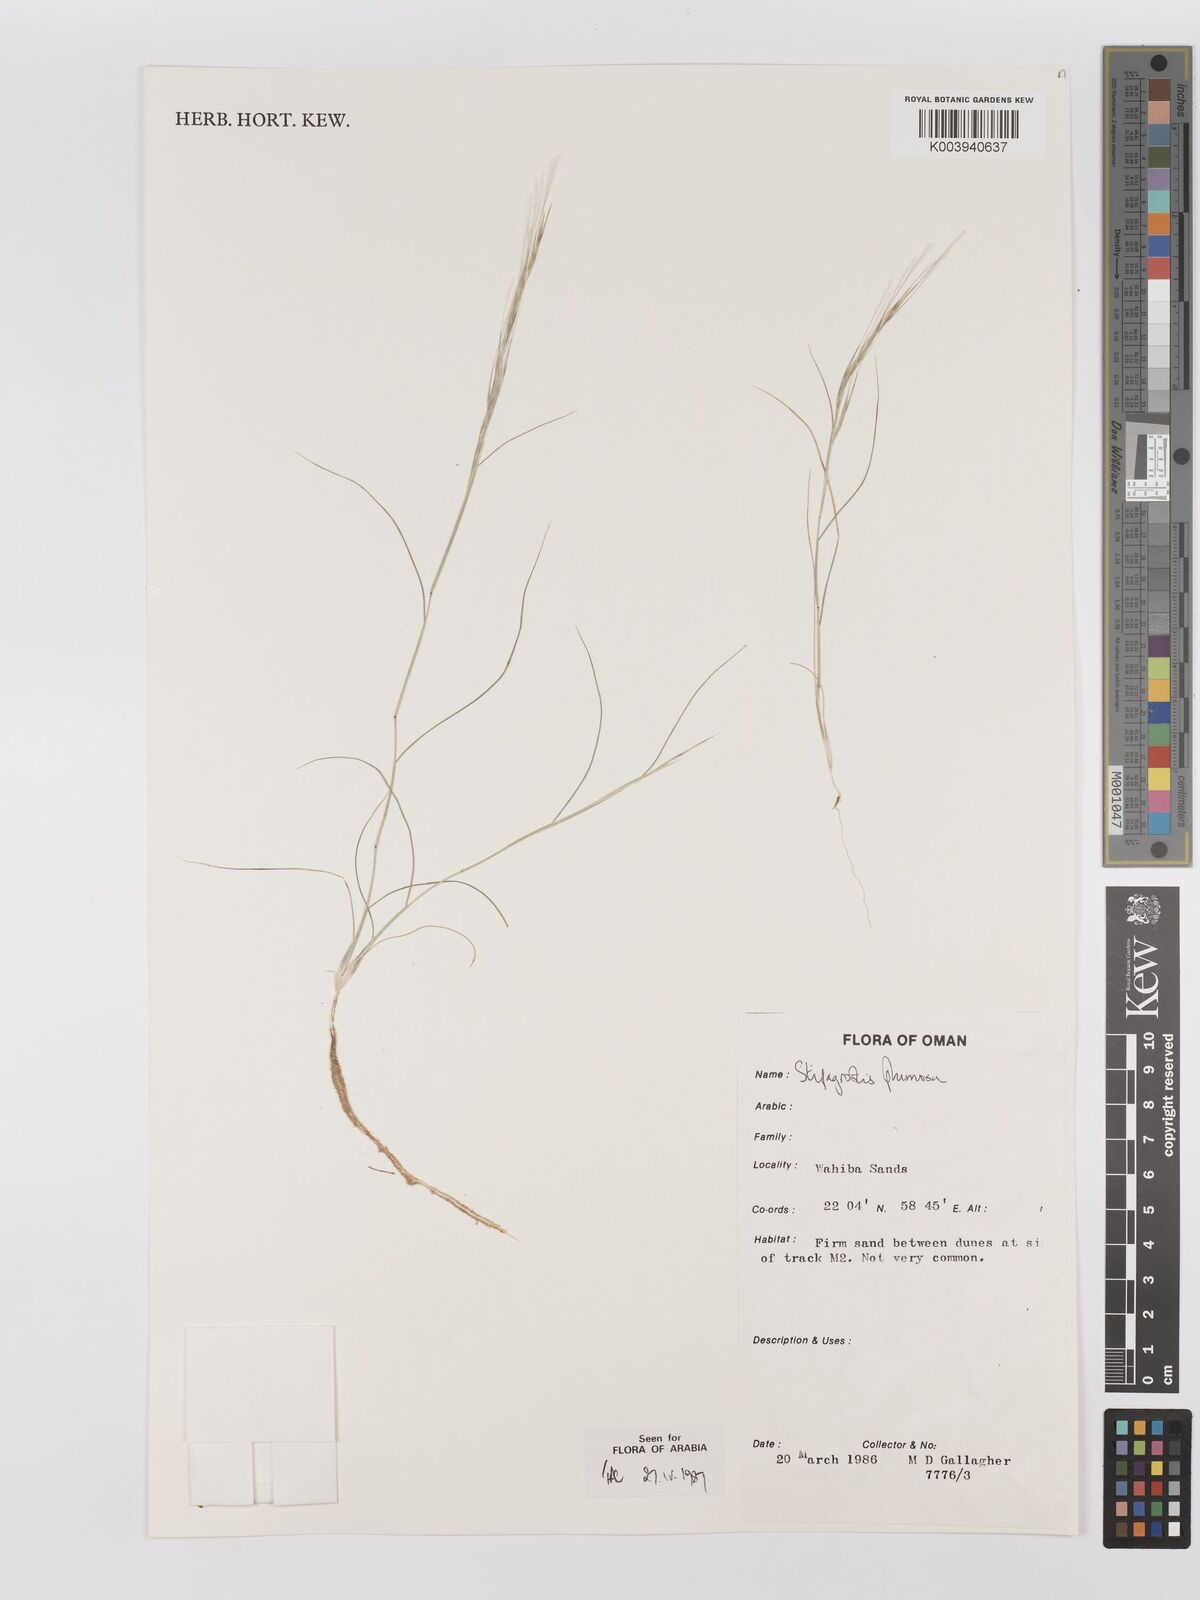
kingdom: Plantae
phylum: Tracheophyta
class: Liliopsida
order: Poales
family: Poaceae
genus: Stipagrostis
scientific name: Stipagrostis plumosa
